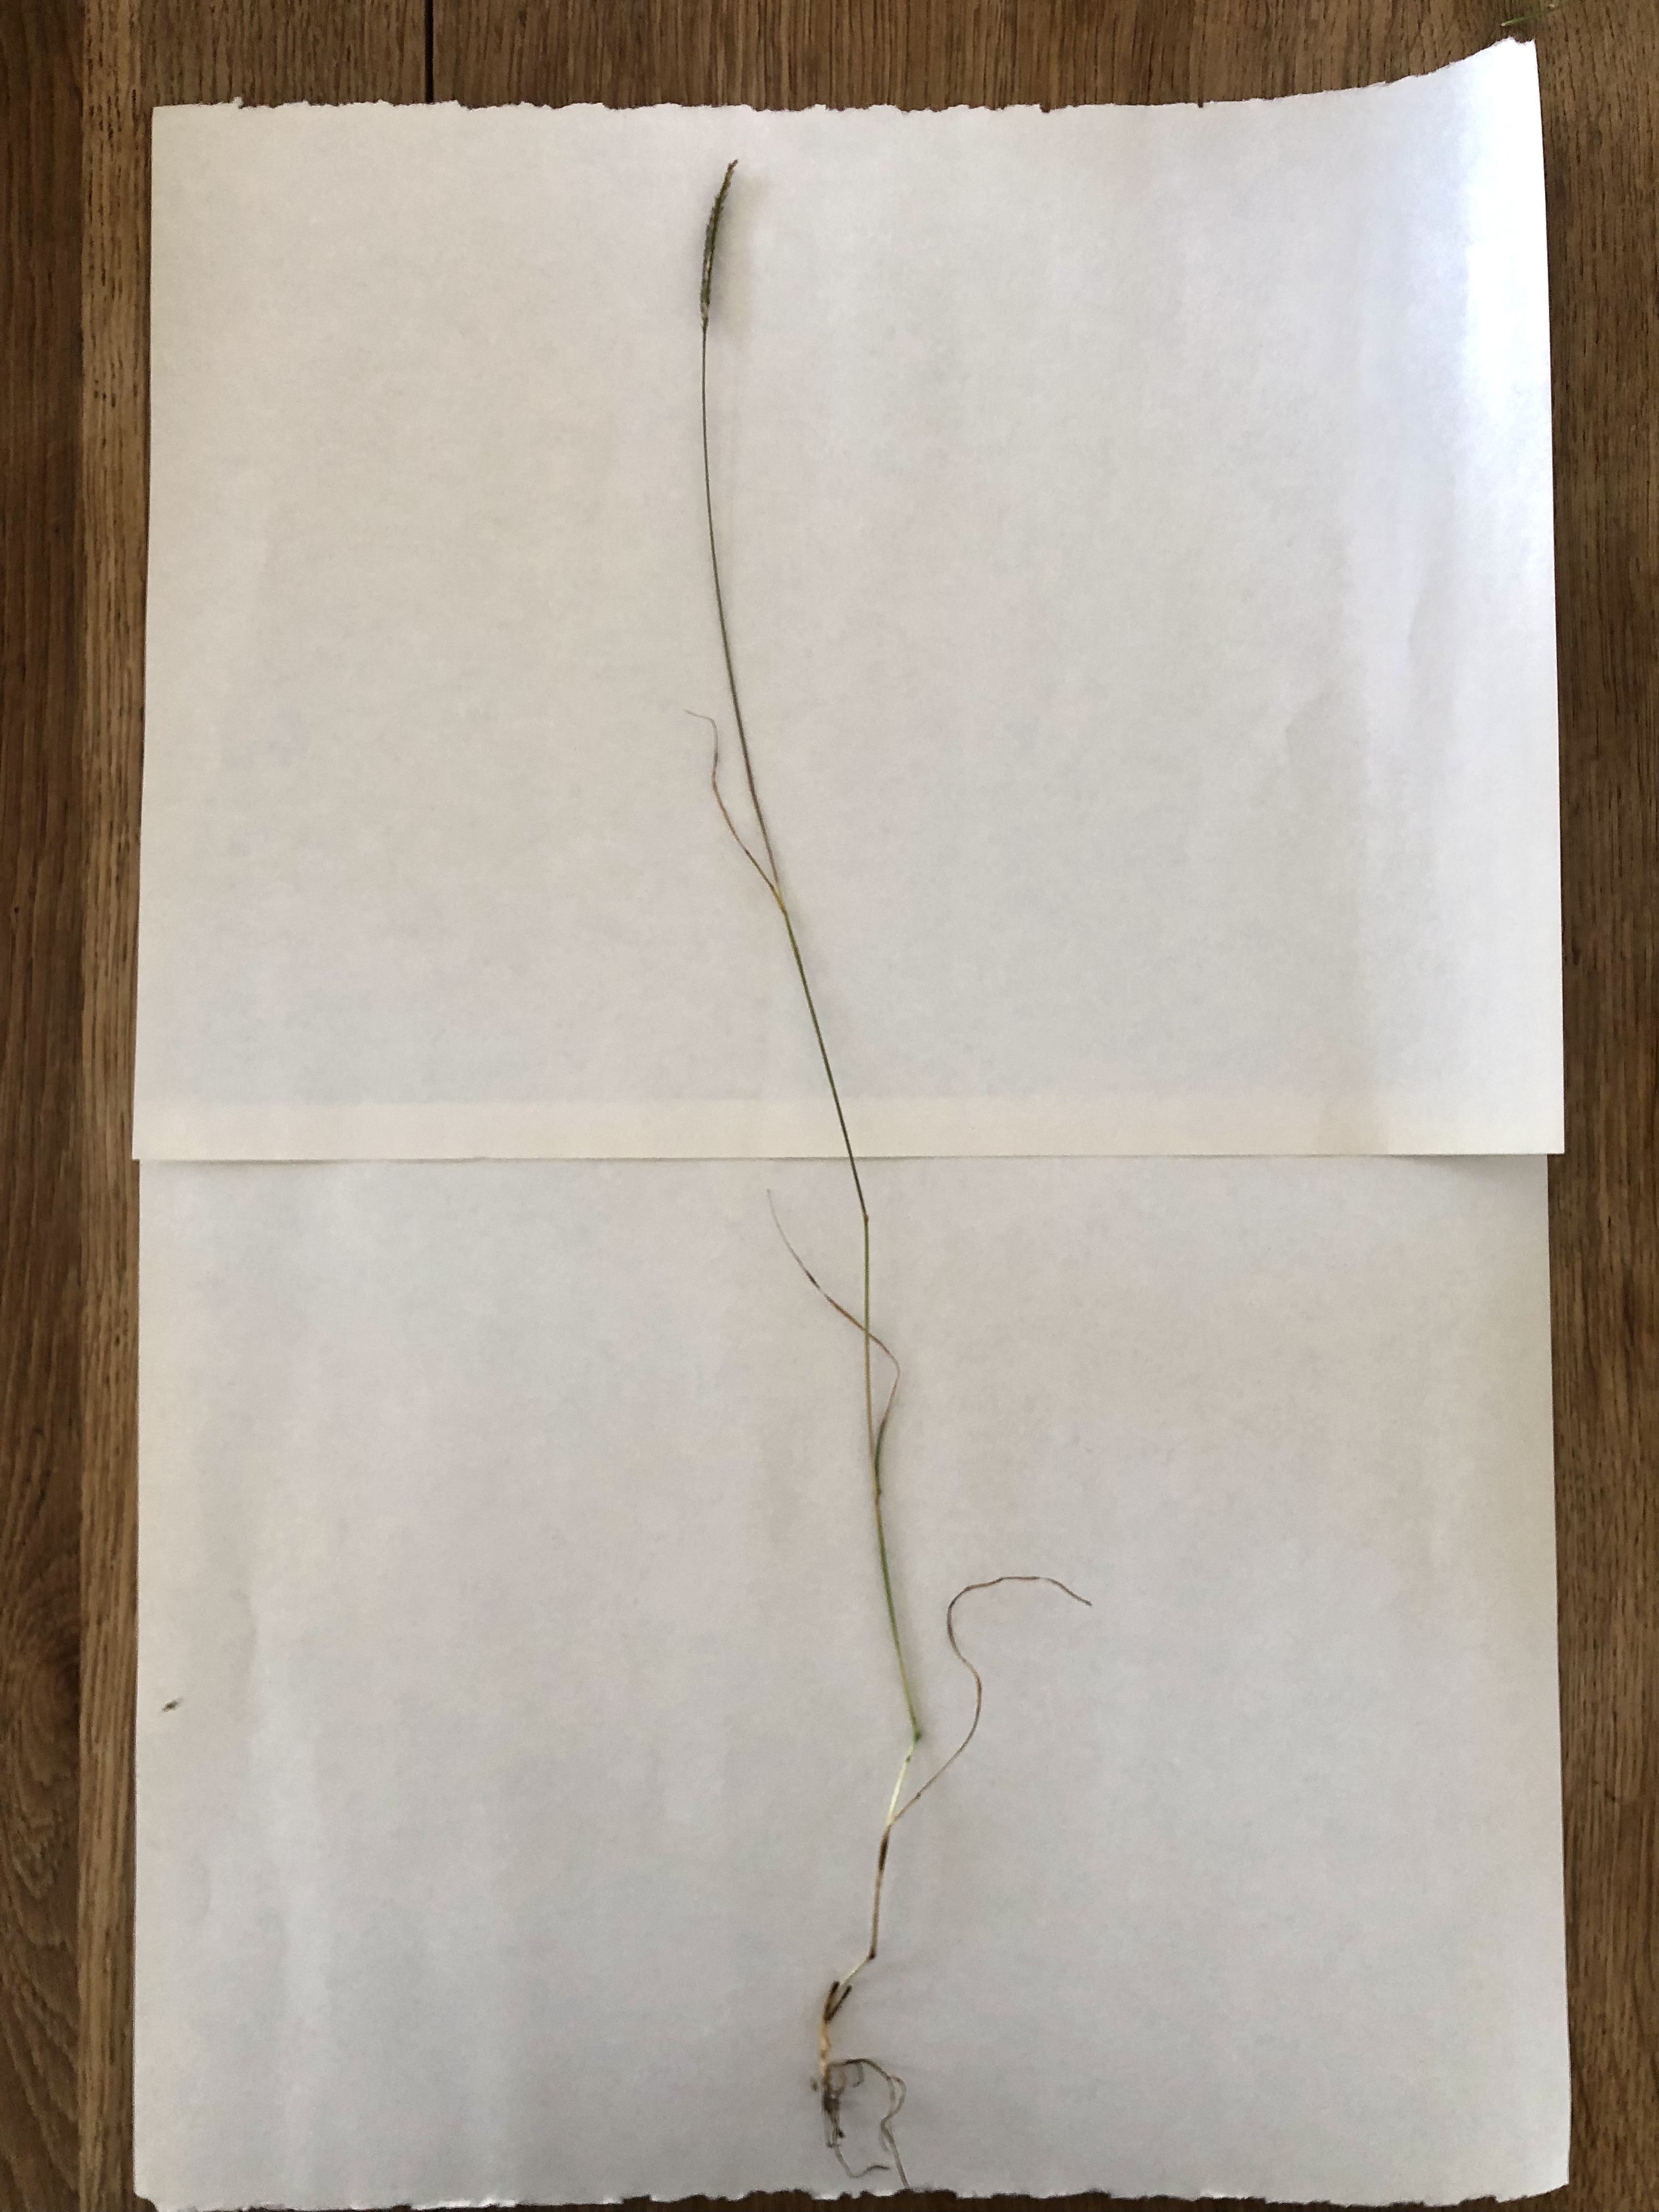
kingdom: Plantae
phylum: Tracheophyta
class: Liliopsida
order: Poales
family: Poaceae
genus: Cynosurus
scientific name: Cynosurus cristatus
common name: Kamgræs
